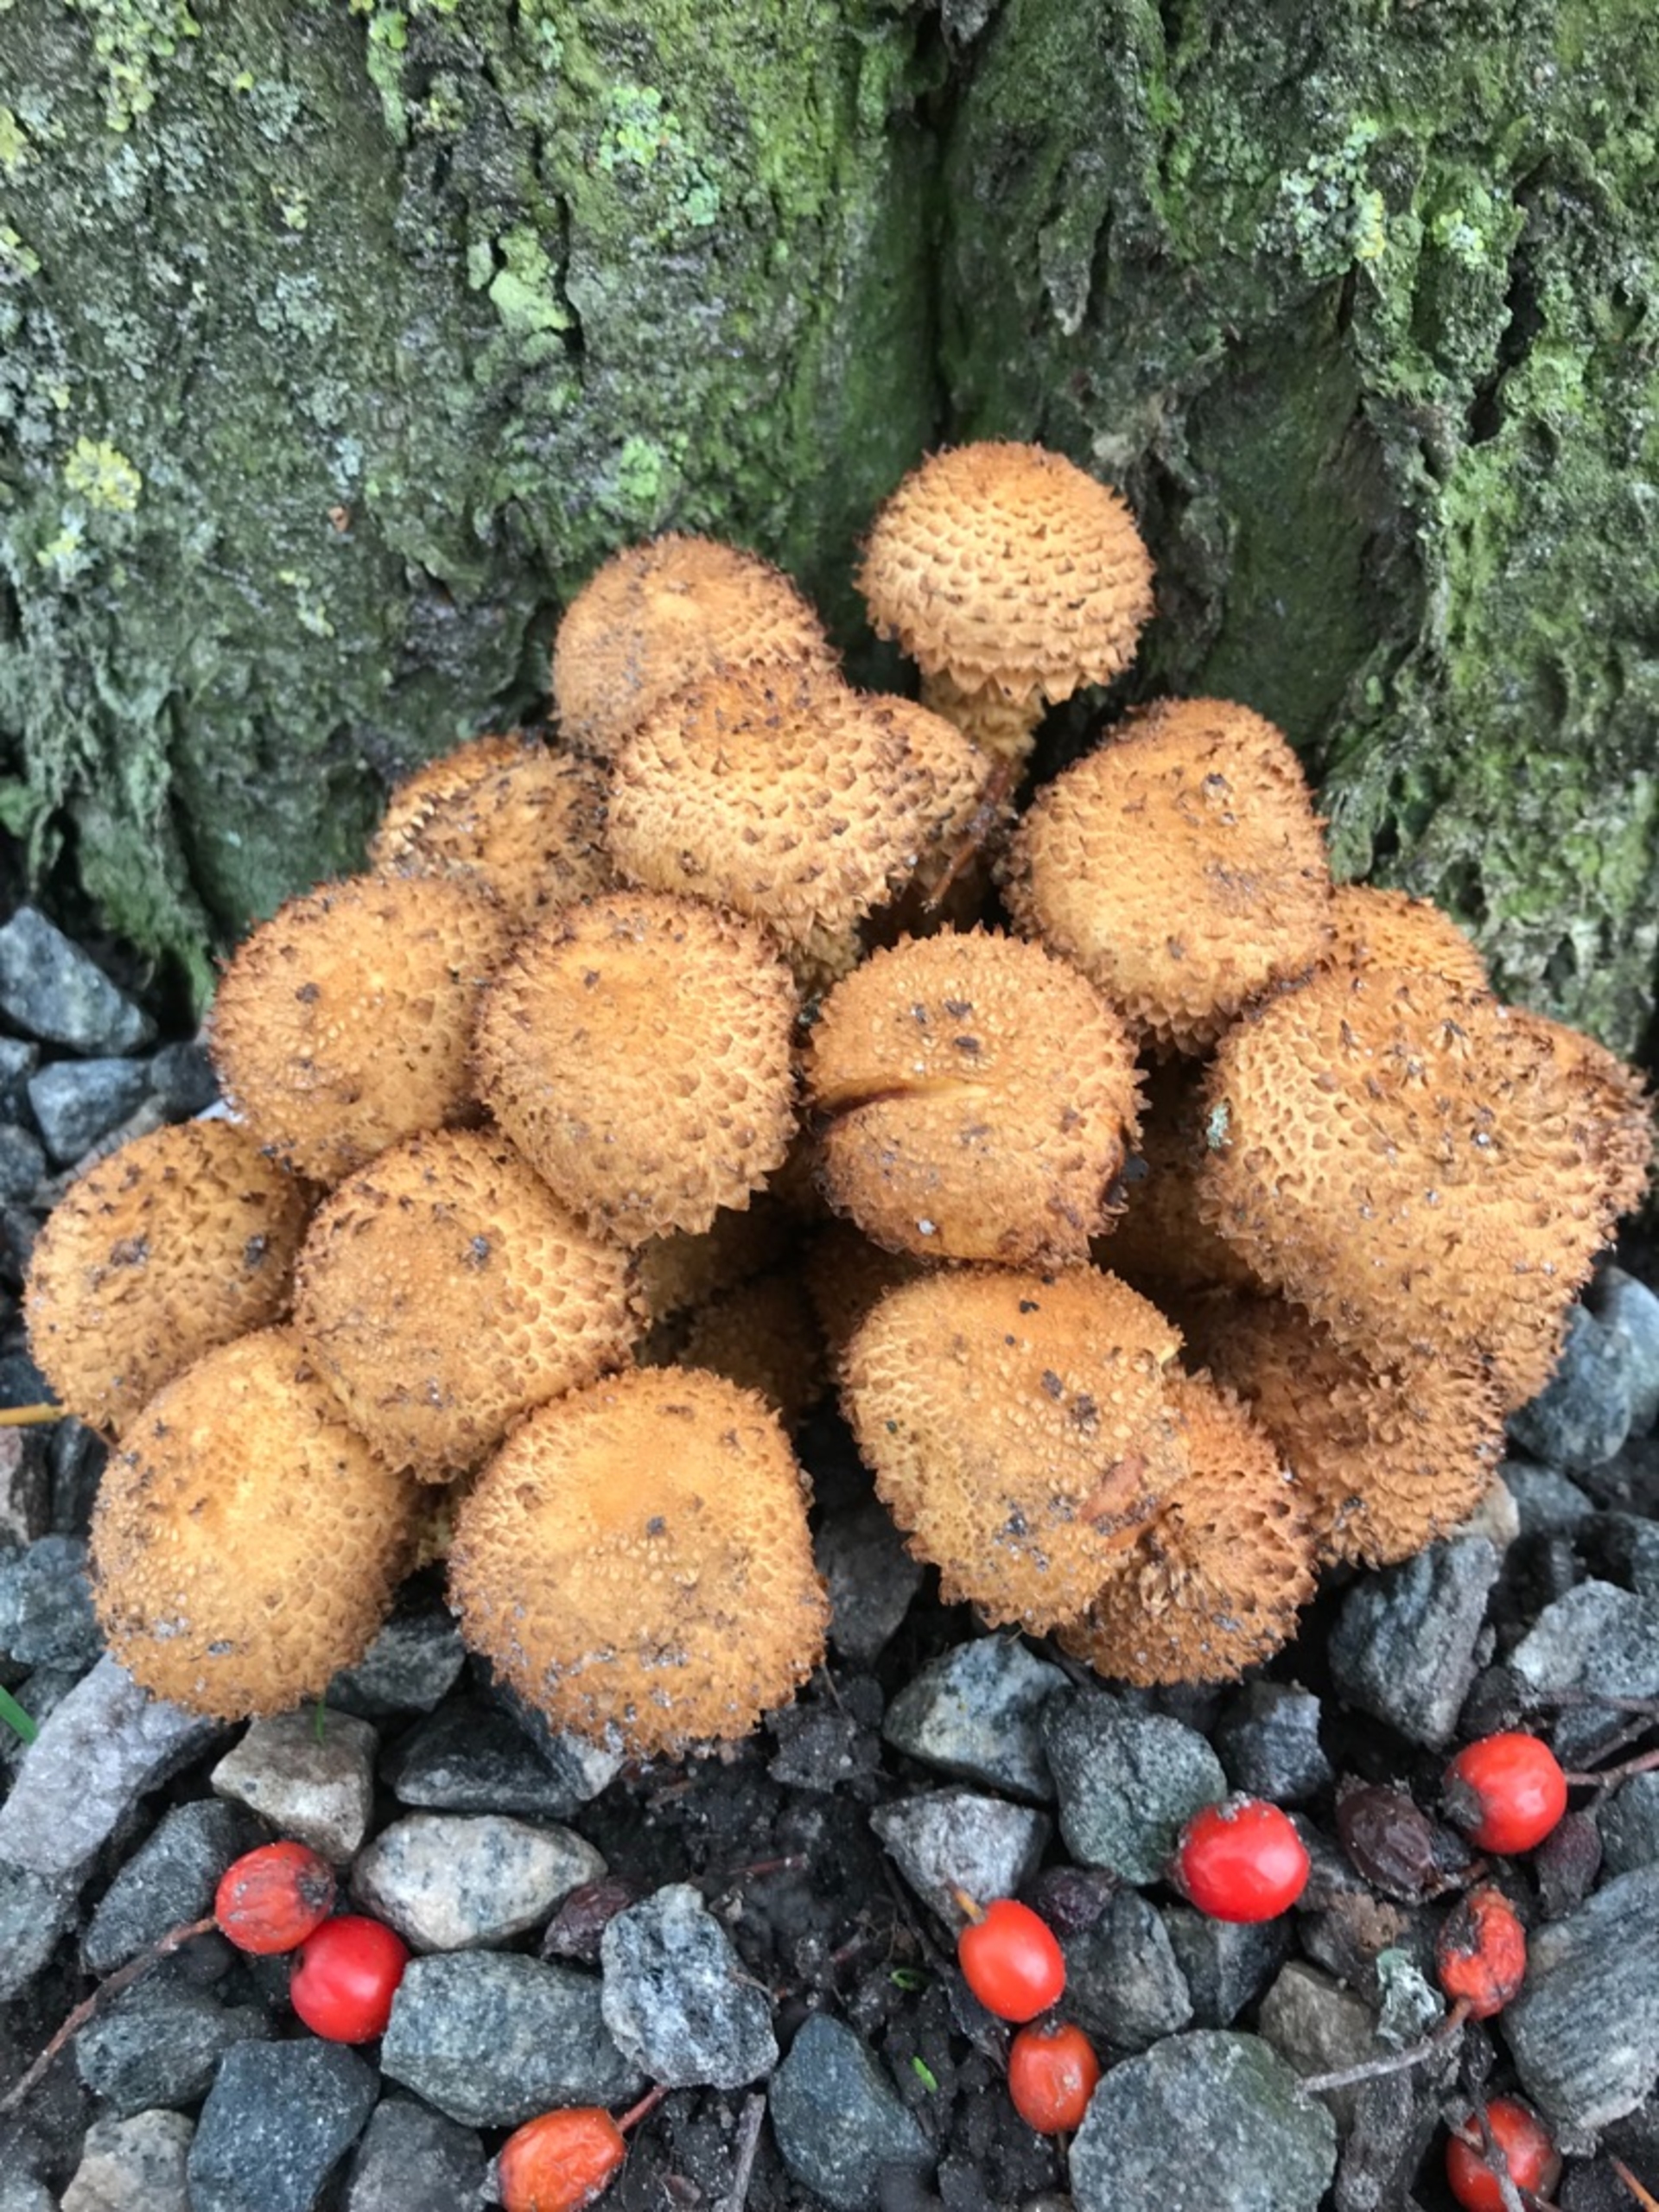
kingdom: Fungi
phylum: Basidiomycota
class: Agaricomycetes
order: Agaricales
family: Strophariaceae
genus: Pholiota
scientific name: Pholiota squarrosa
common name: Krumskællet skælhat
